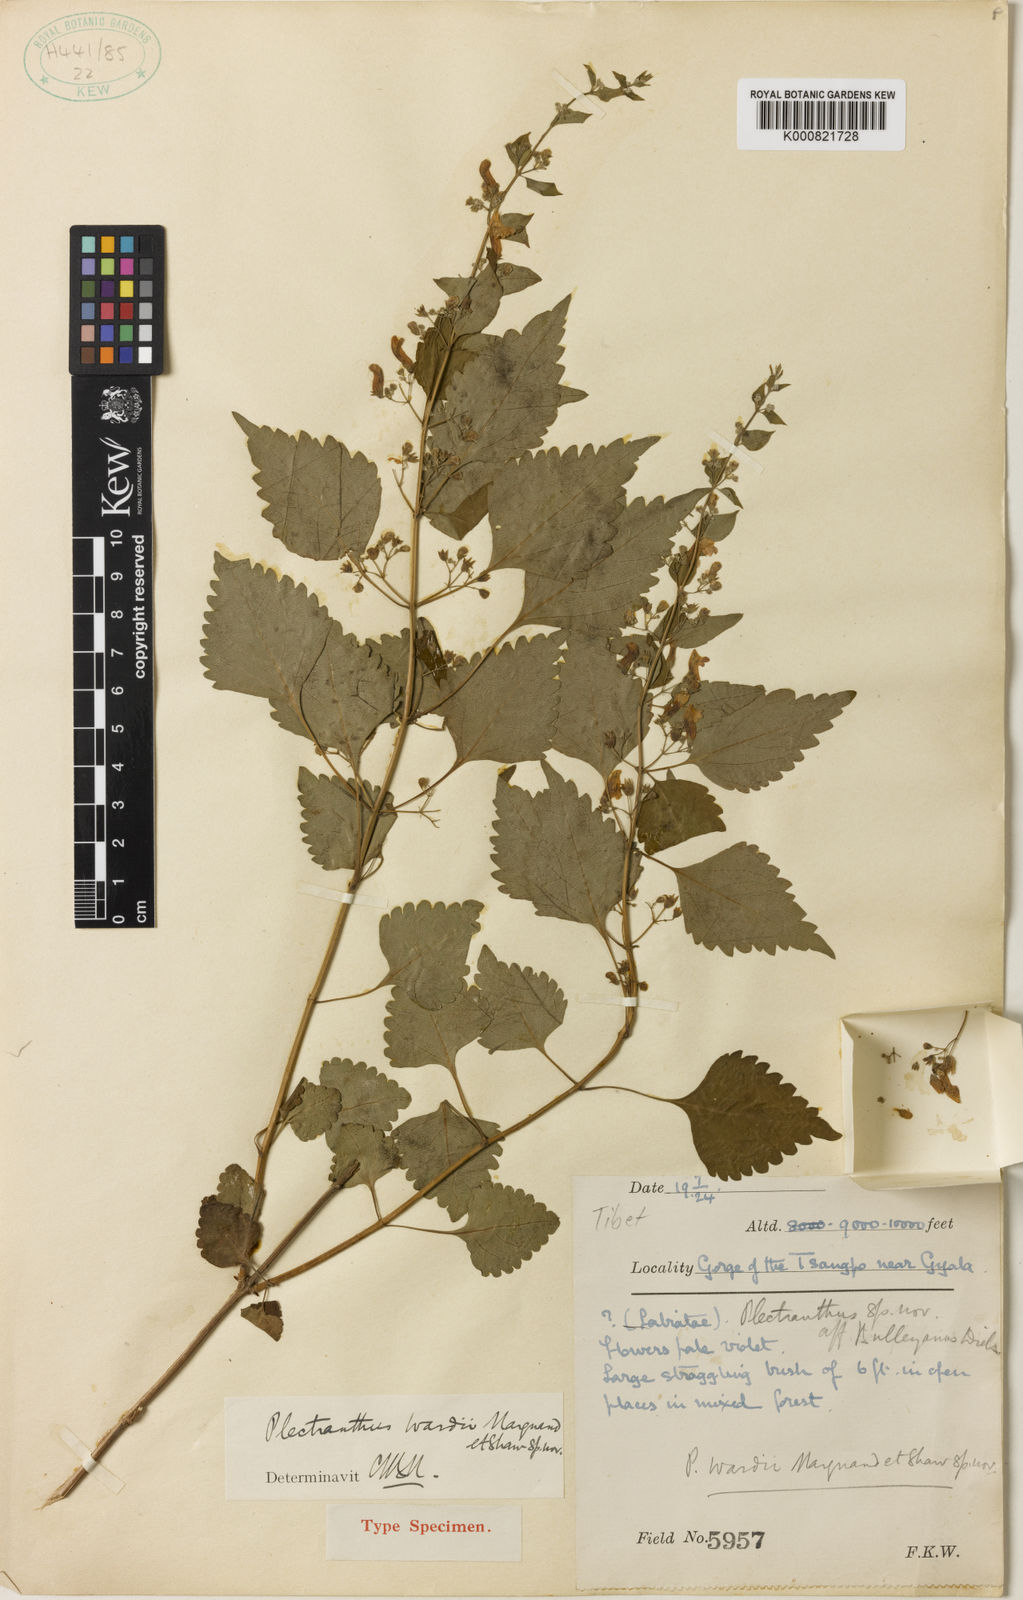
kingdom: Plantae
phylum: Tracheophyta
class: Magnoliopsida
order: Lamiales
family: Lamiaceae
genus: Isodon
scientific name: Isodon wardii
